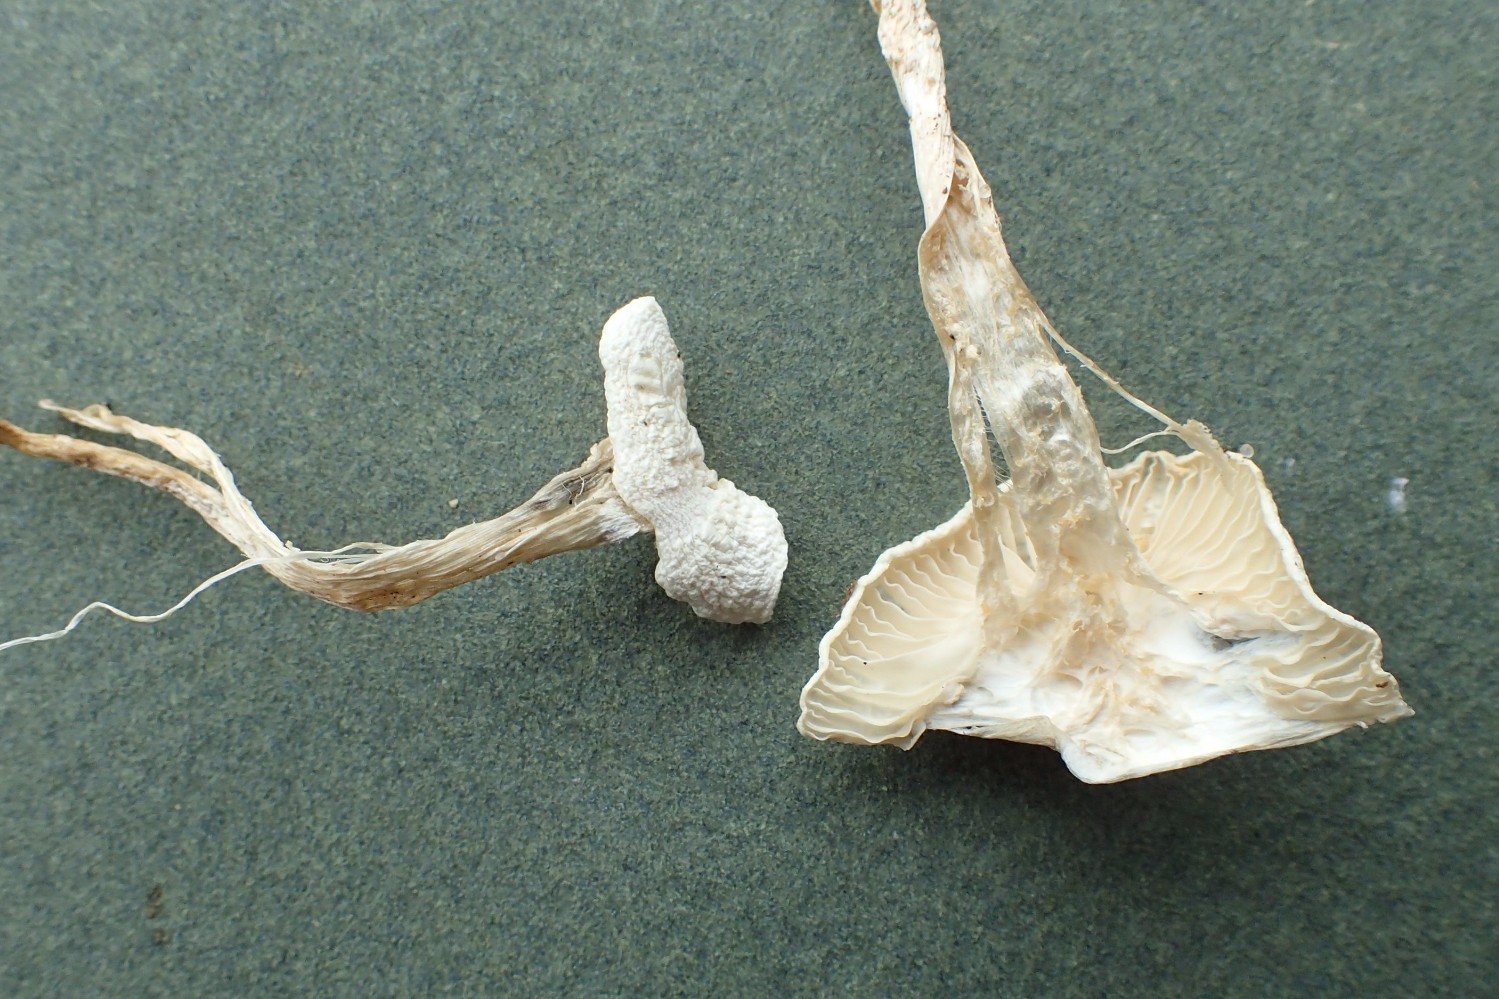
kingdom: Fungi
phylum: Basidiomycota
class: Agaricomycetes
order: Agaricales
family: Hygrophoraceae
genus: Hygrophorus
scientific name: Hygrophorus eburneus
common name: elfenbens-sneglehat
